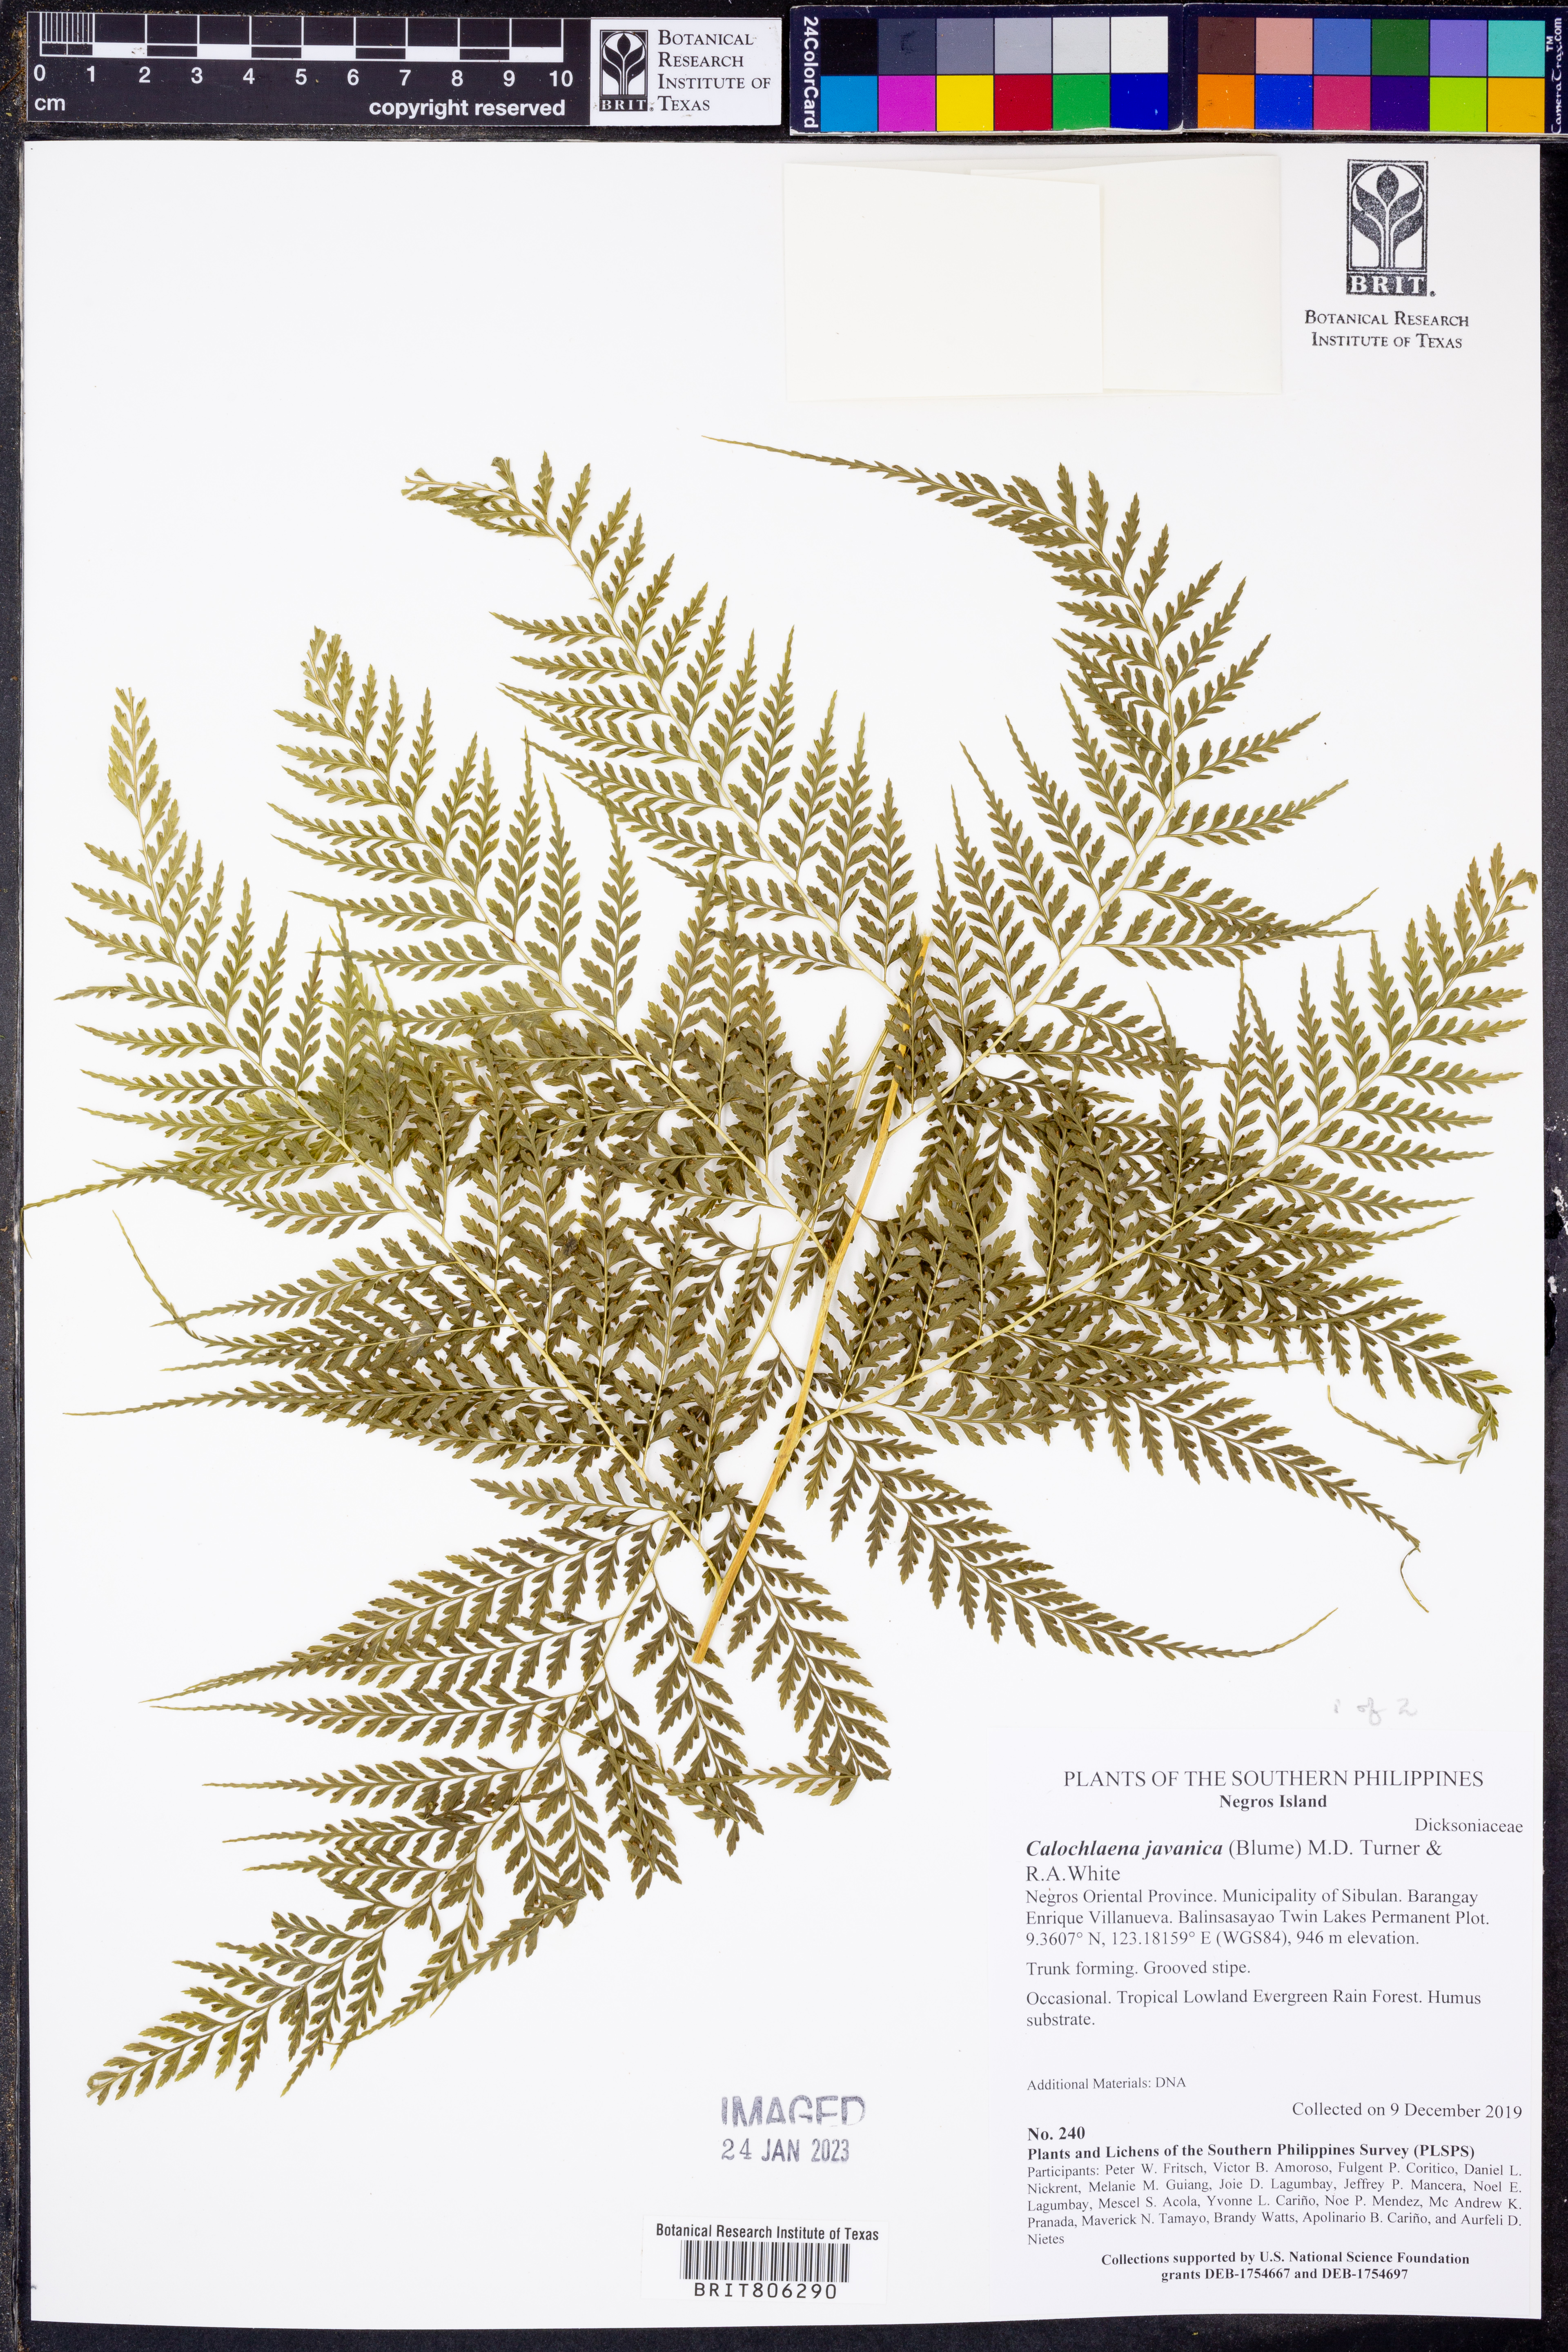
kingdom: Plantae
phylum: Tracheophyta
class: Polypodiopsida
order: Cyatheales
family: Dicksoniaceae
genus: Calochlaena
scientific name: Calochlaena javanica
